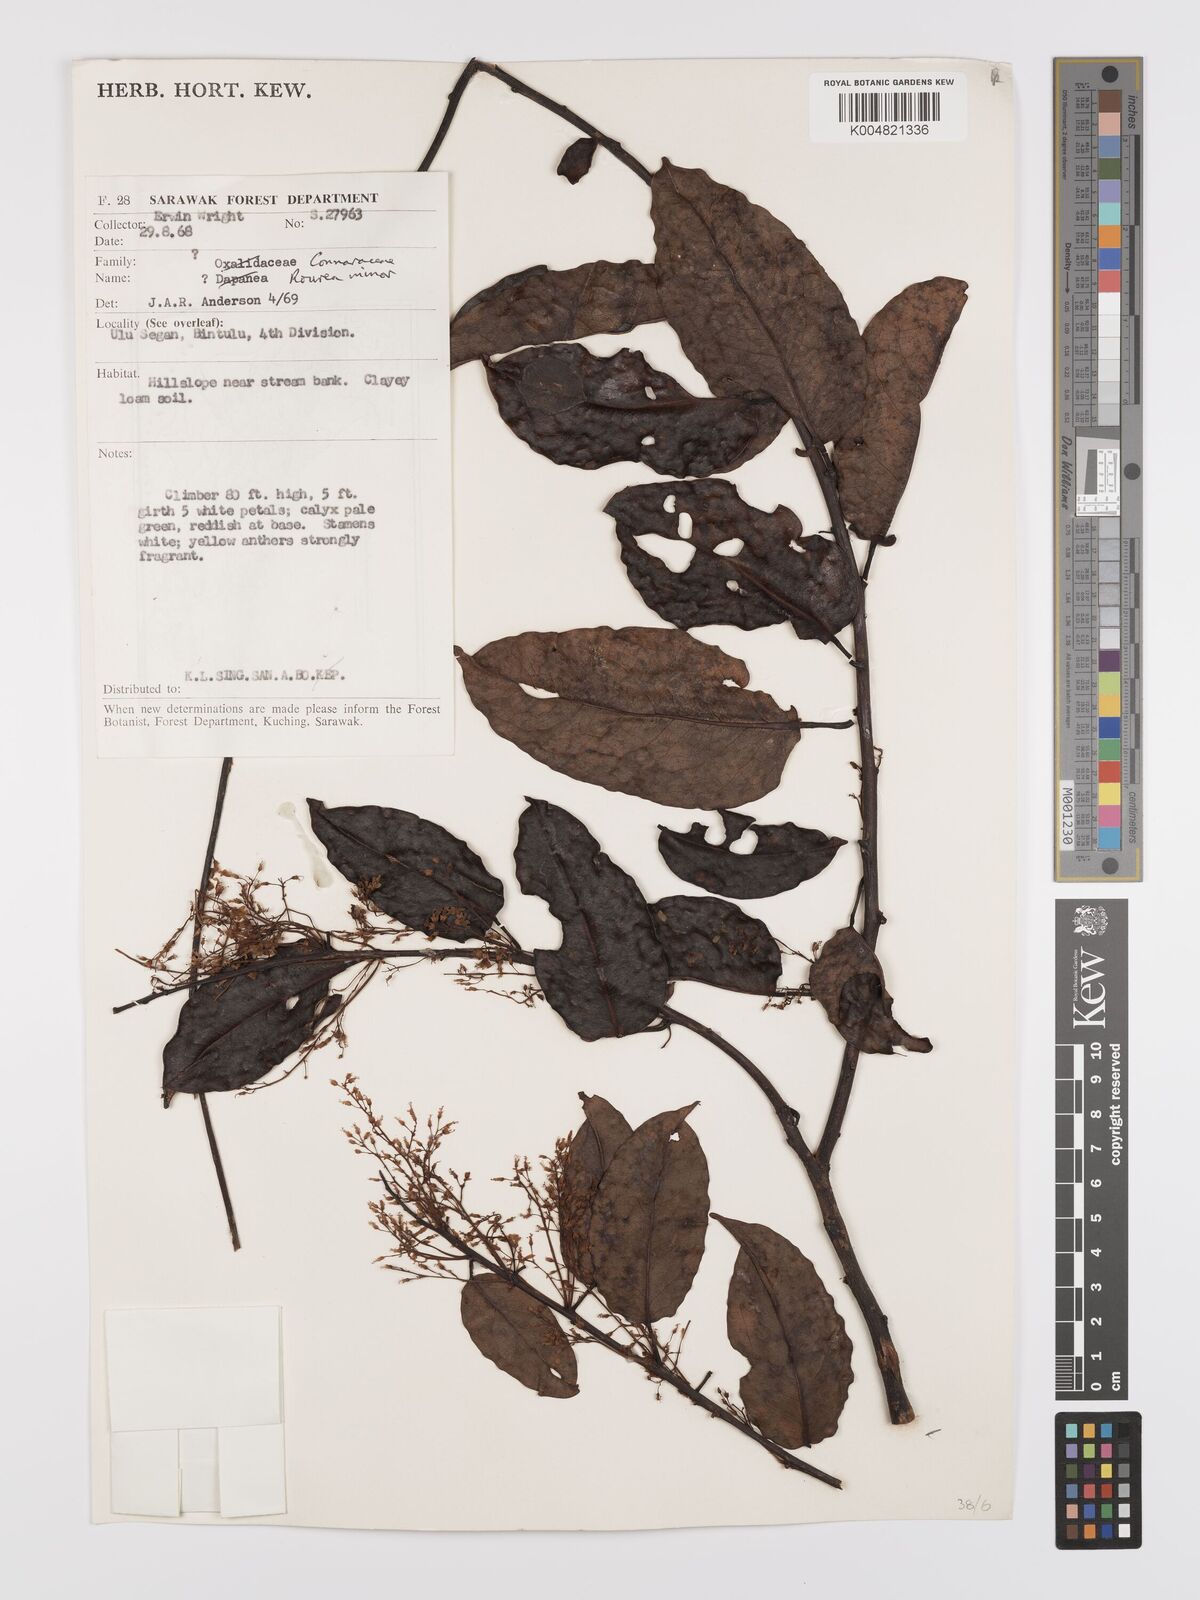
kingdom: Plantae
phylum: Tracheophyta
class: Magnoliopsida
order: Oxalidales
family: Connaraceae
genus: Rourea
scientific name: Rourea minor
